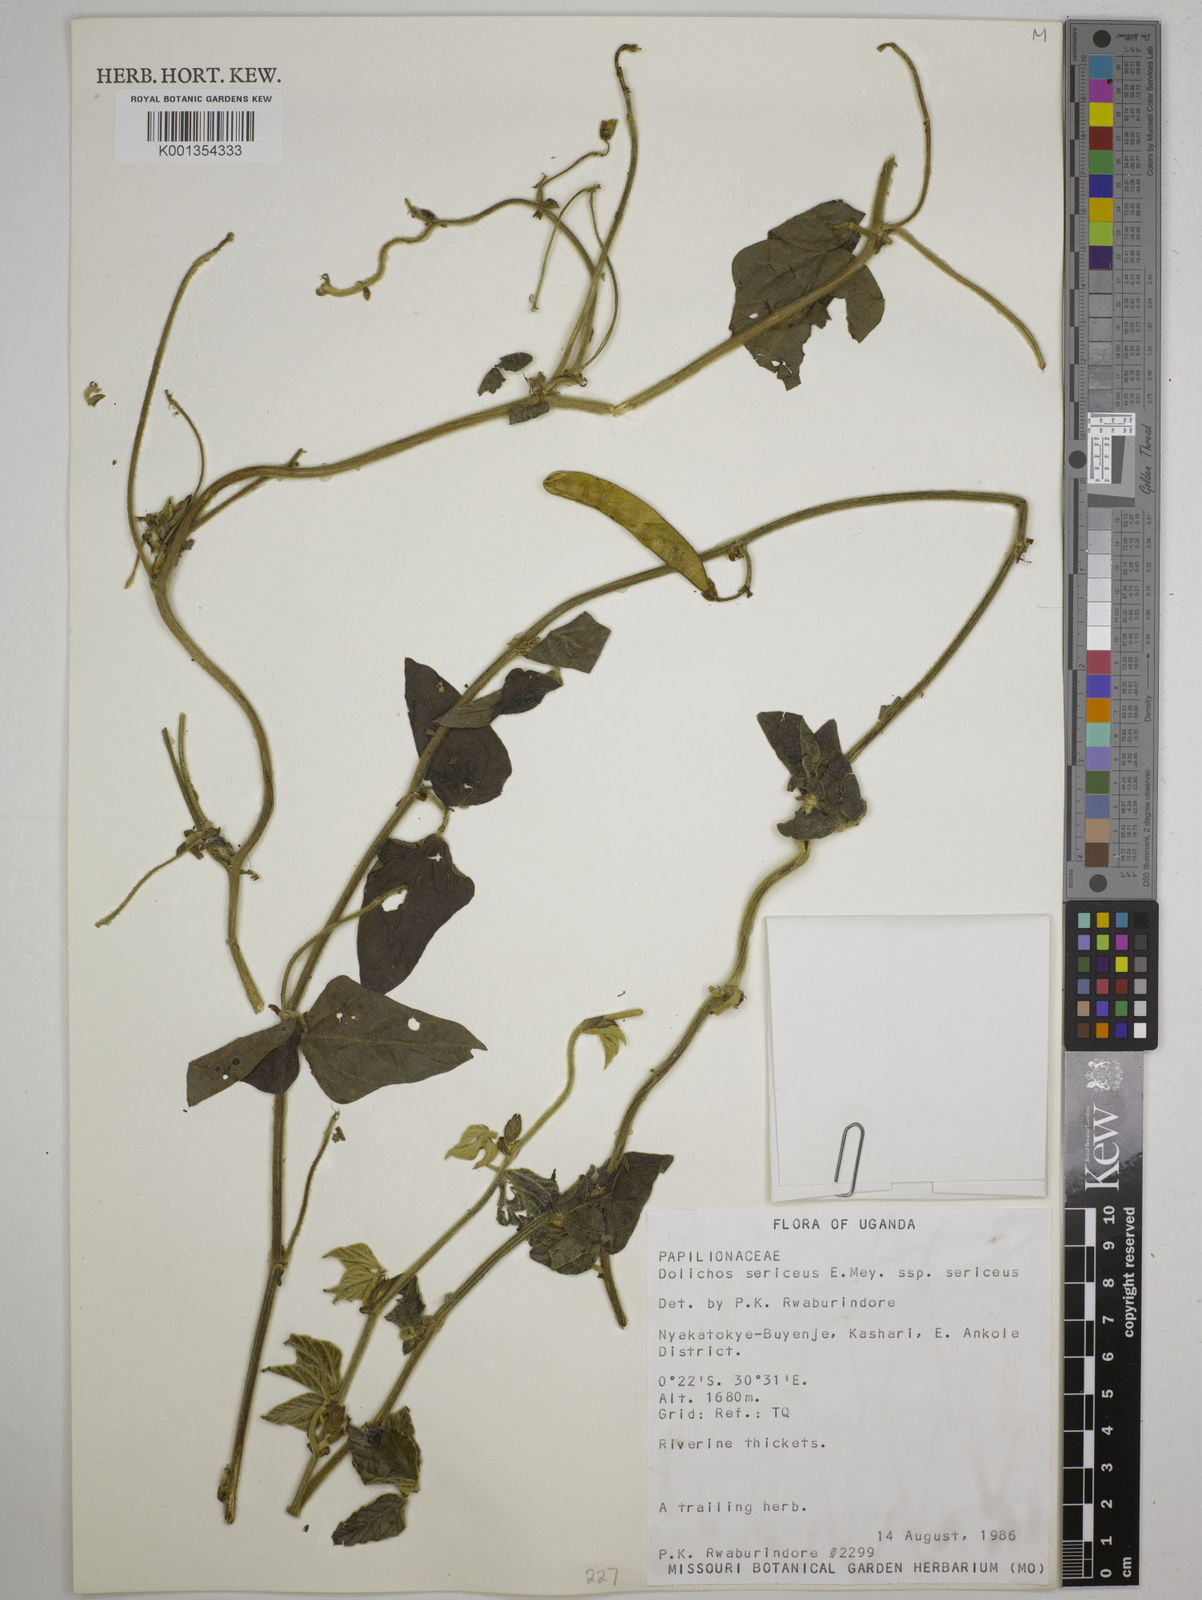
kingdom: Plantae
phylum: Tracheophyta
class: Magnoliopsida
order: Fabales
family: Fabaceae
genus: Dolichos
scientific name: Dolichos
